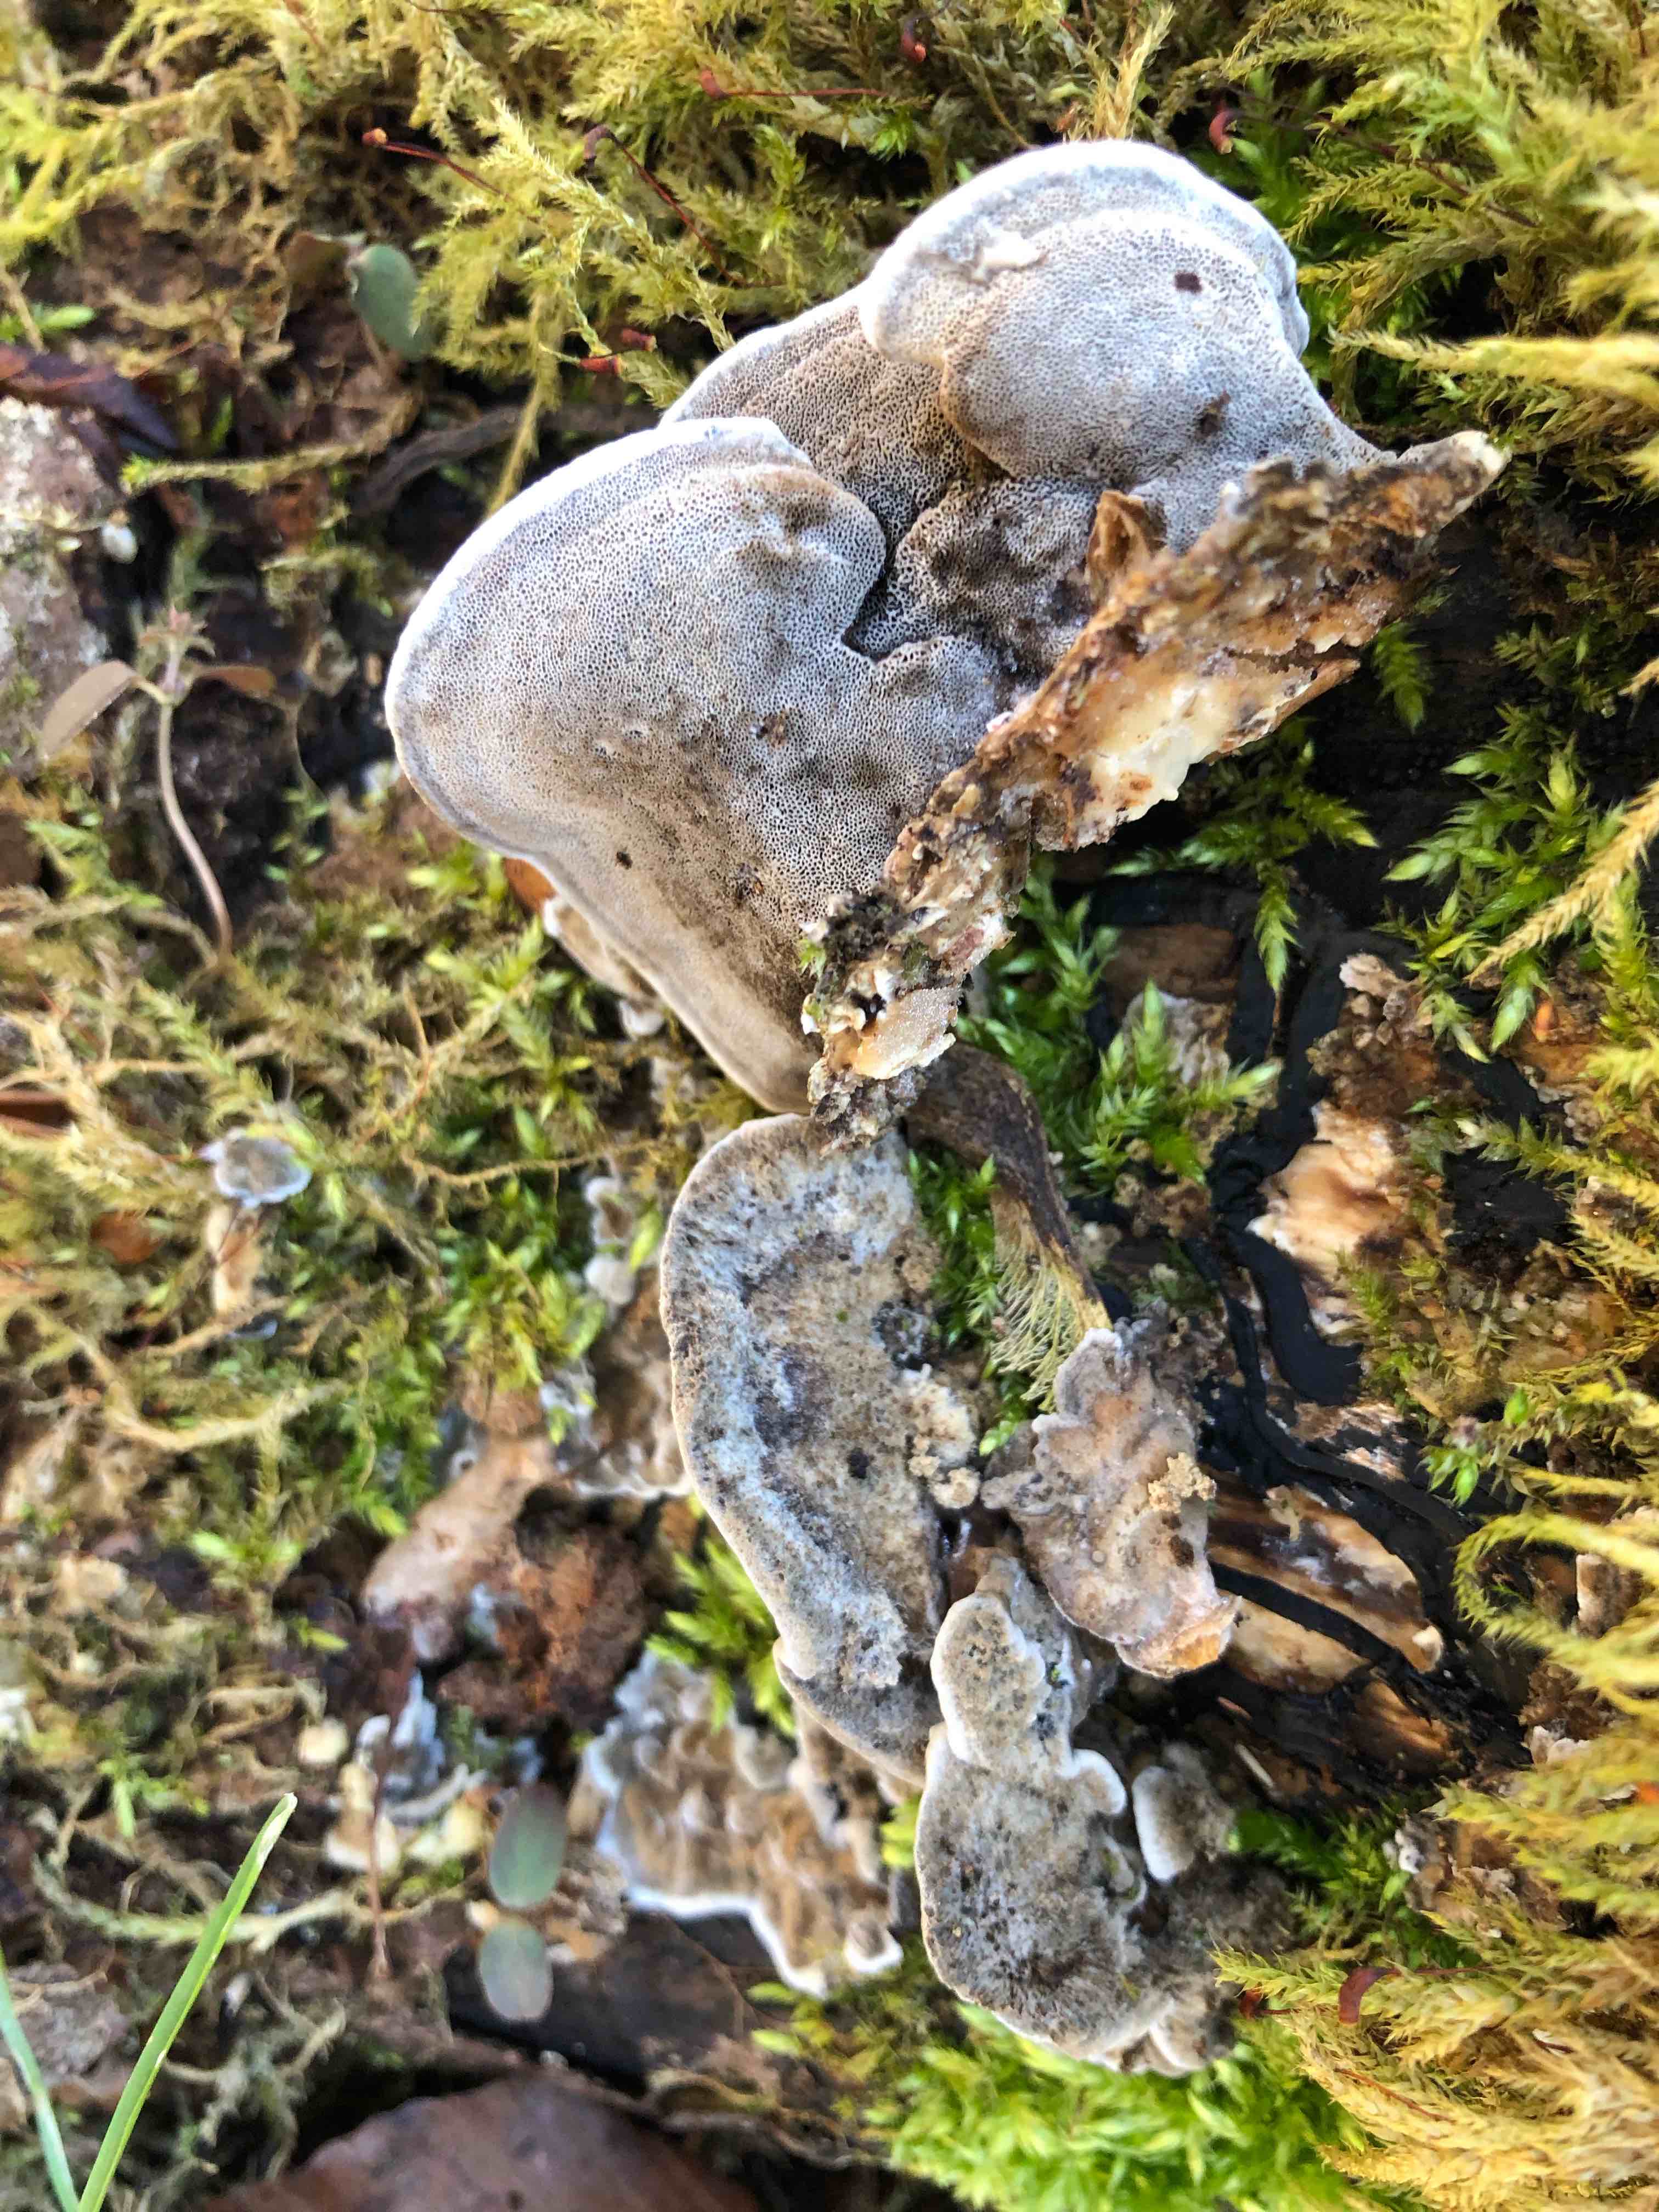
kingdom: Fungi
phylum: Basidiomycota
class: Agaricomycetes
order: Polyporales
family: Phanerochaetaceae
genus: Bjerkandera
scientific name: Bjerkandera adusta
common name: sveden sodporesvamp
